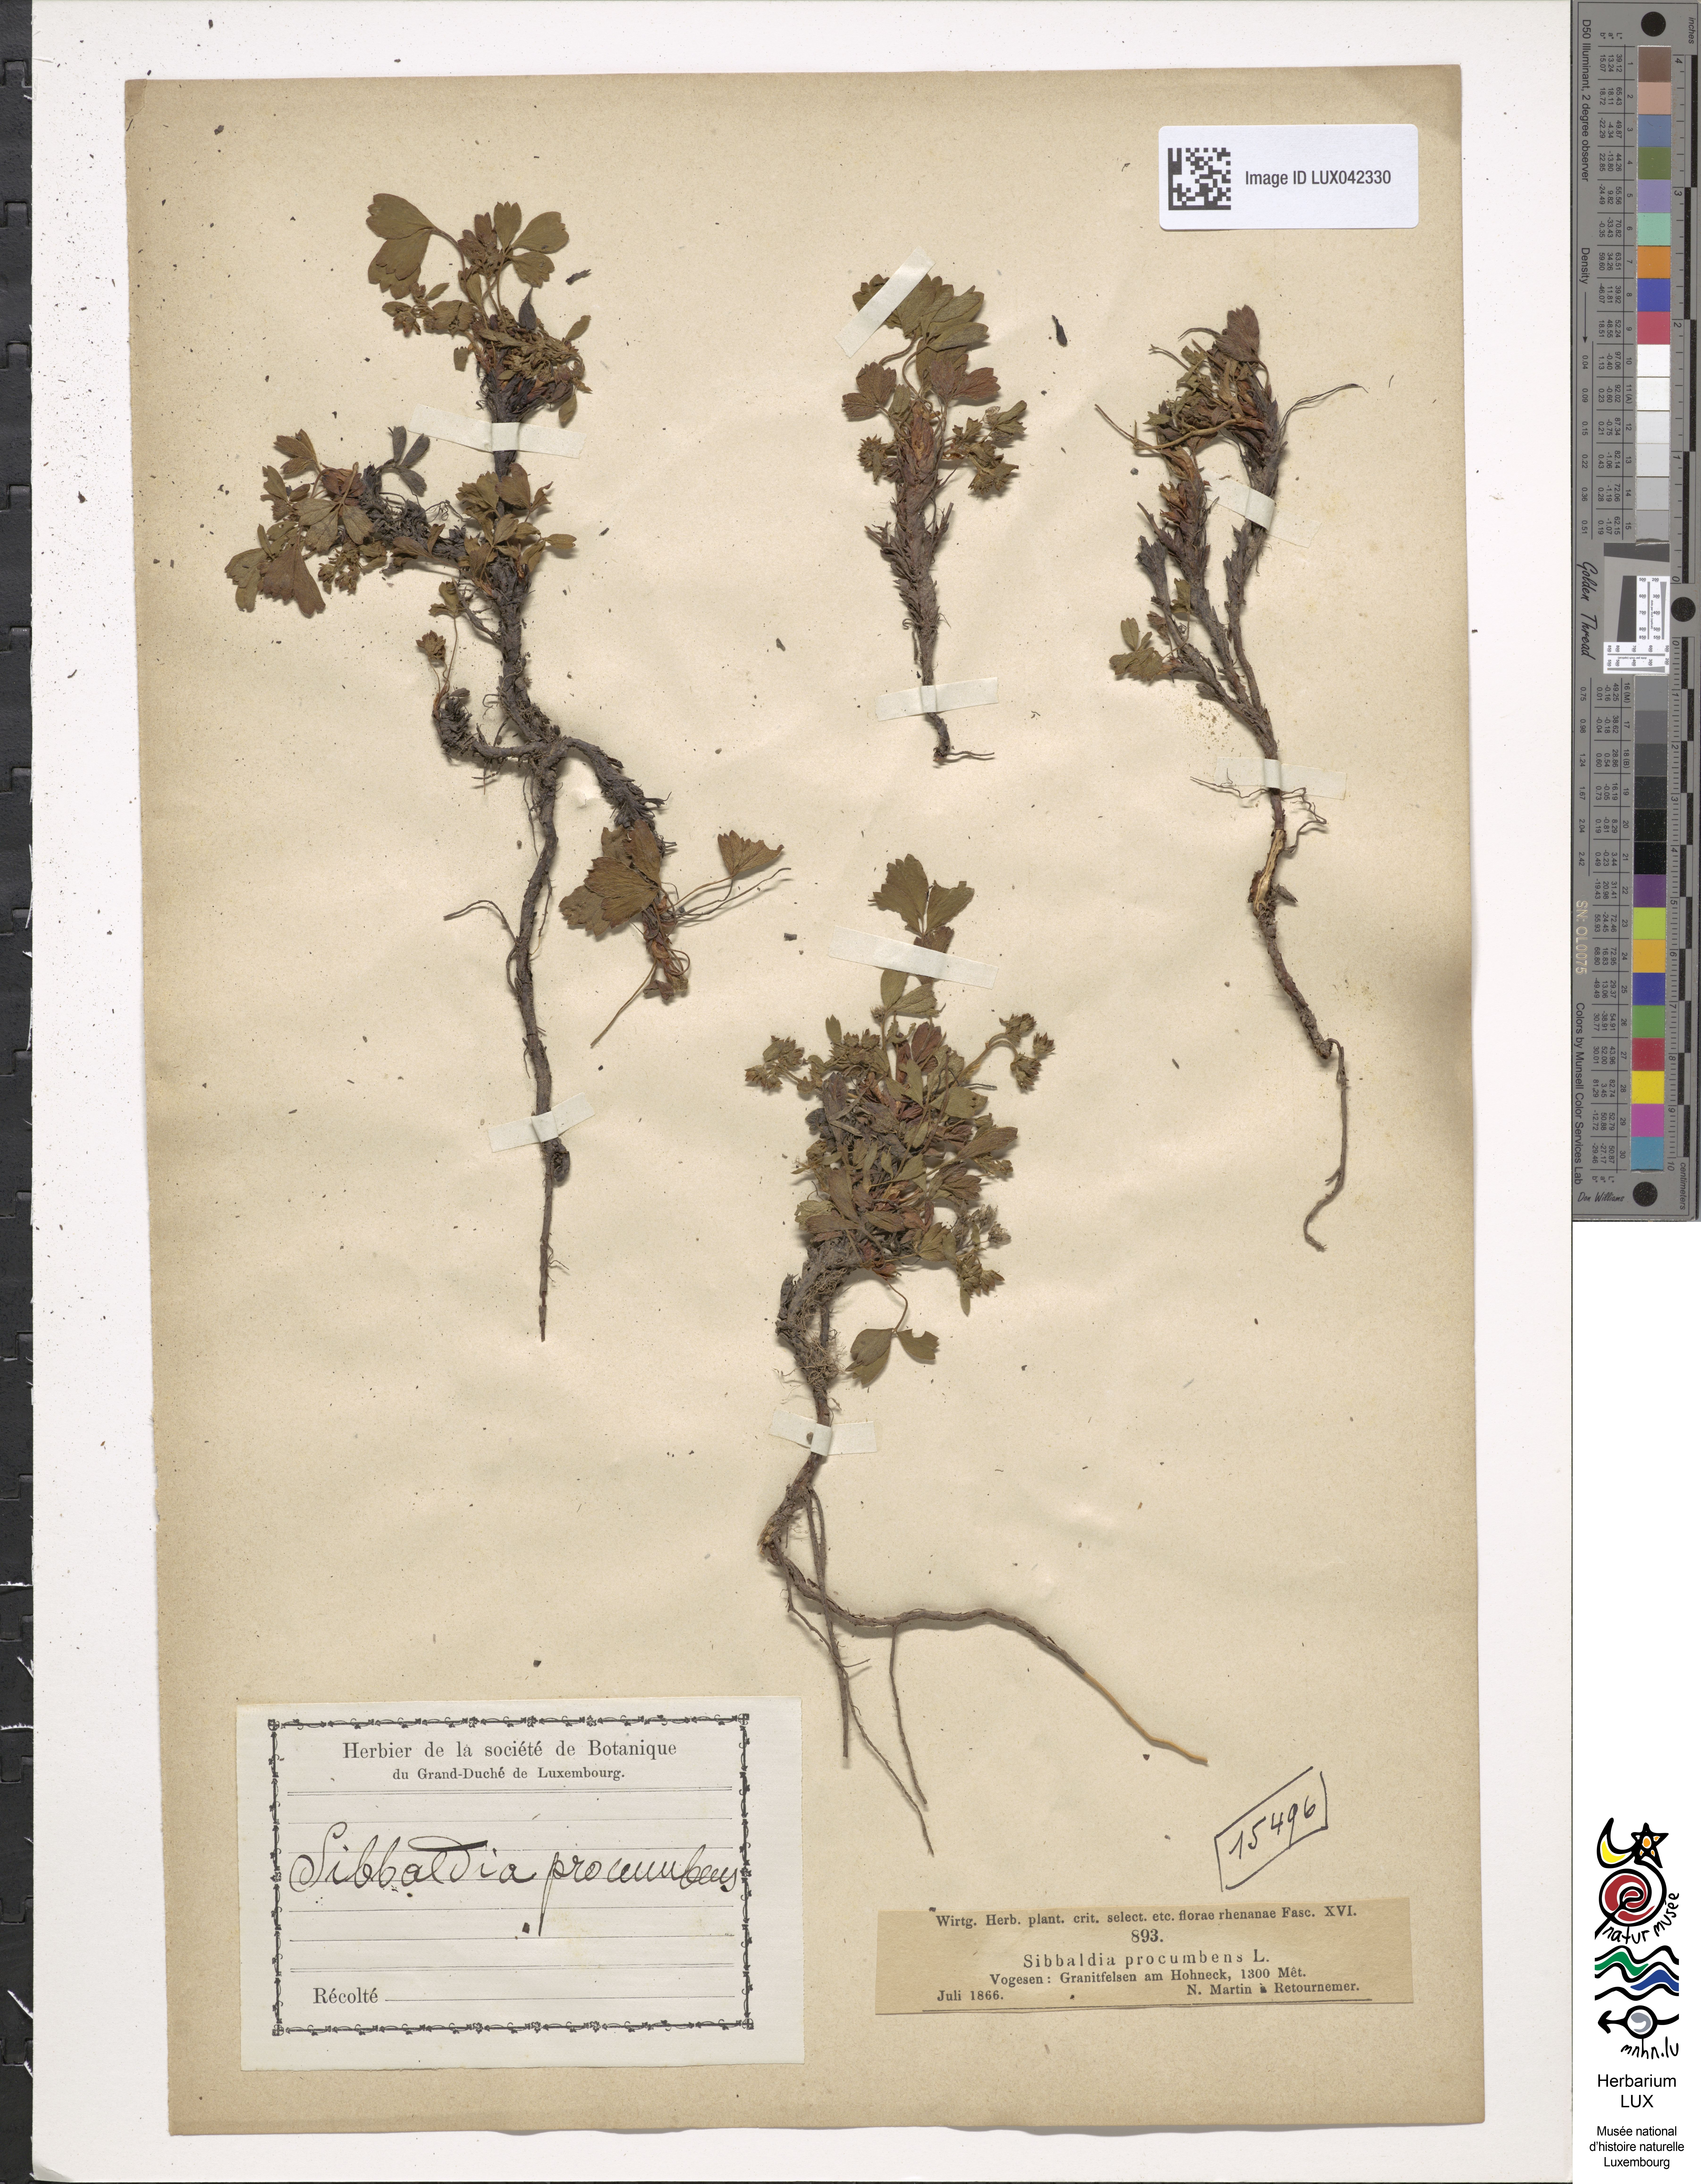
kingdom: Plantae
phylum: Tracheophyta
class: Magnoliopsida
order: Rosales
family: Rosaceae
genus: Sibbaldia
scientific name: Sibbaldia procumbens
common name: Creeping sibbaldia
